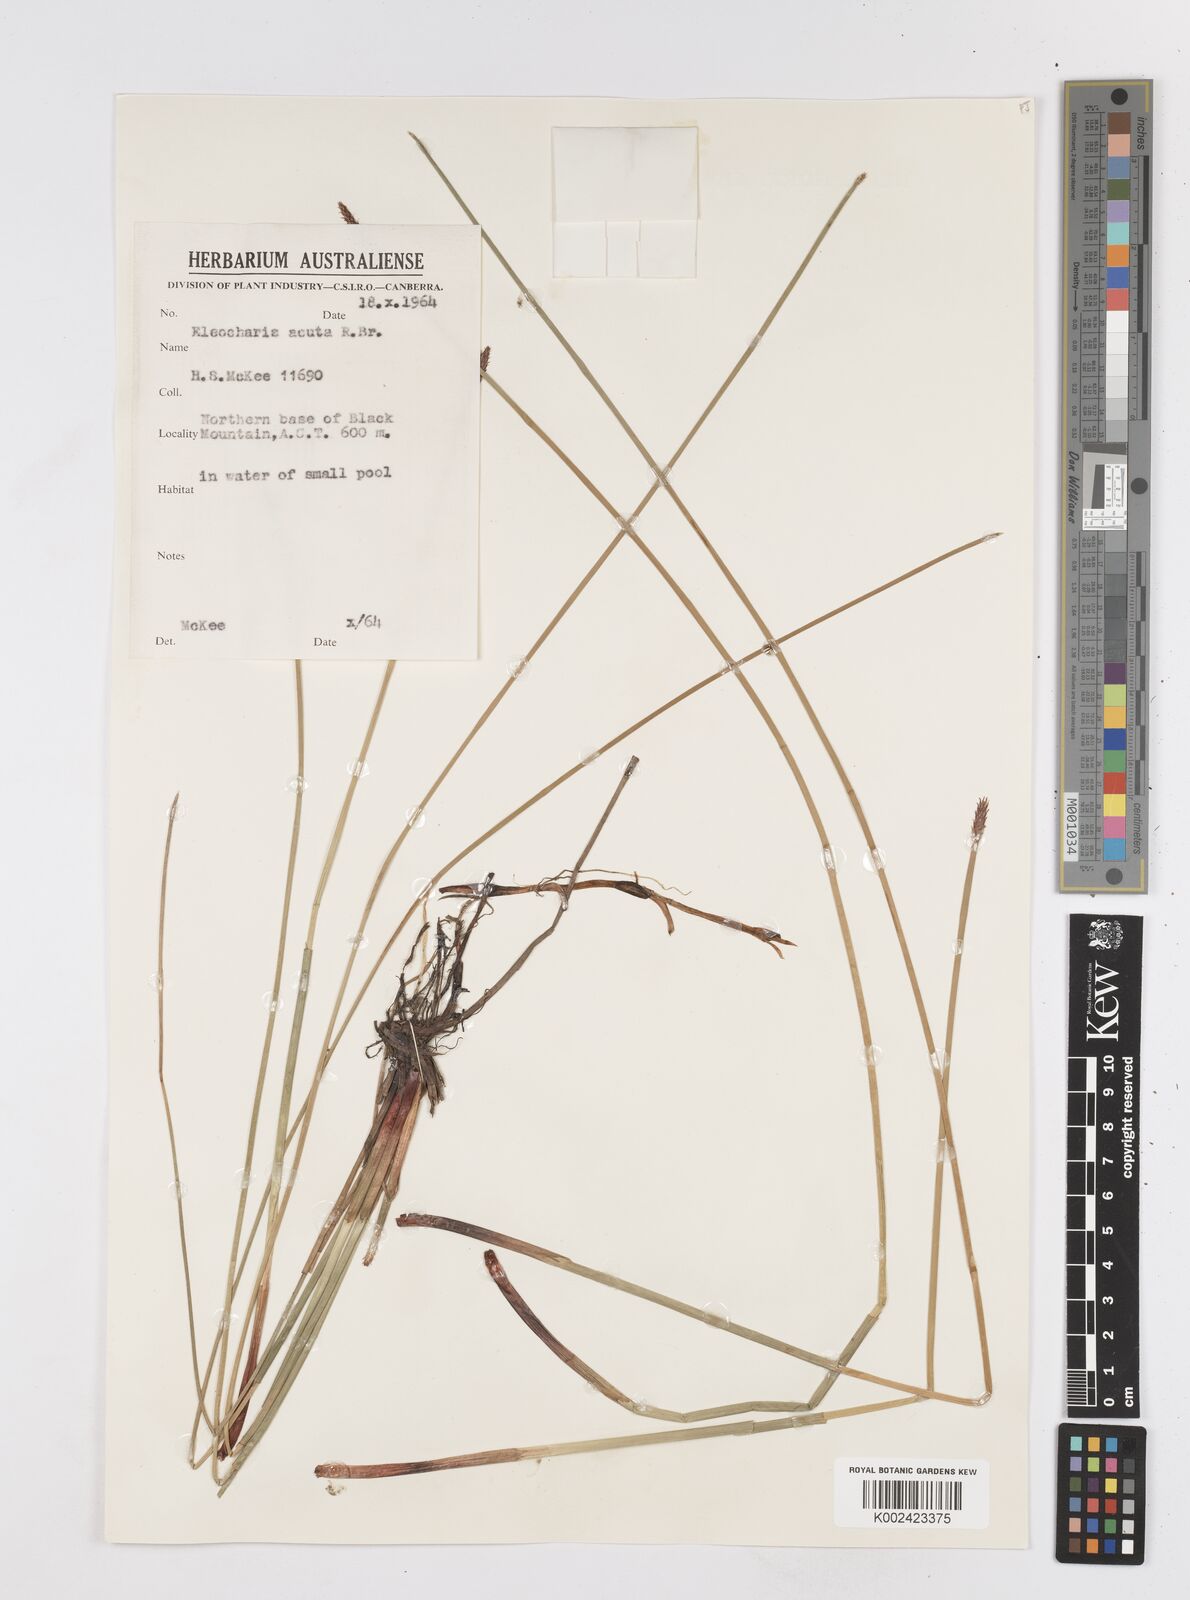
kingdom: Plantae
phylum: Tracheophyta
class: Liliopsida
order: Poales
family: Cyperaceae
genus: Eleocharis
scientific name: Eleocharis acuta
